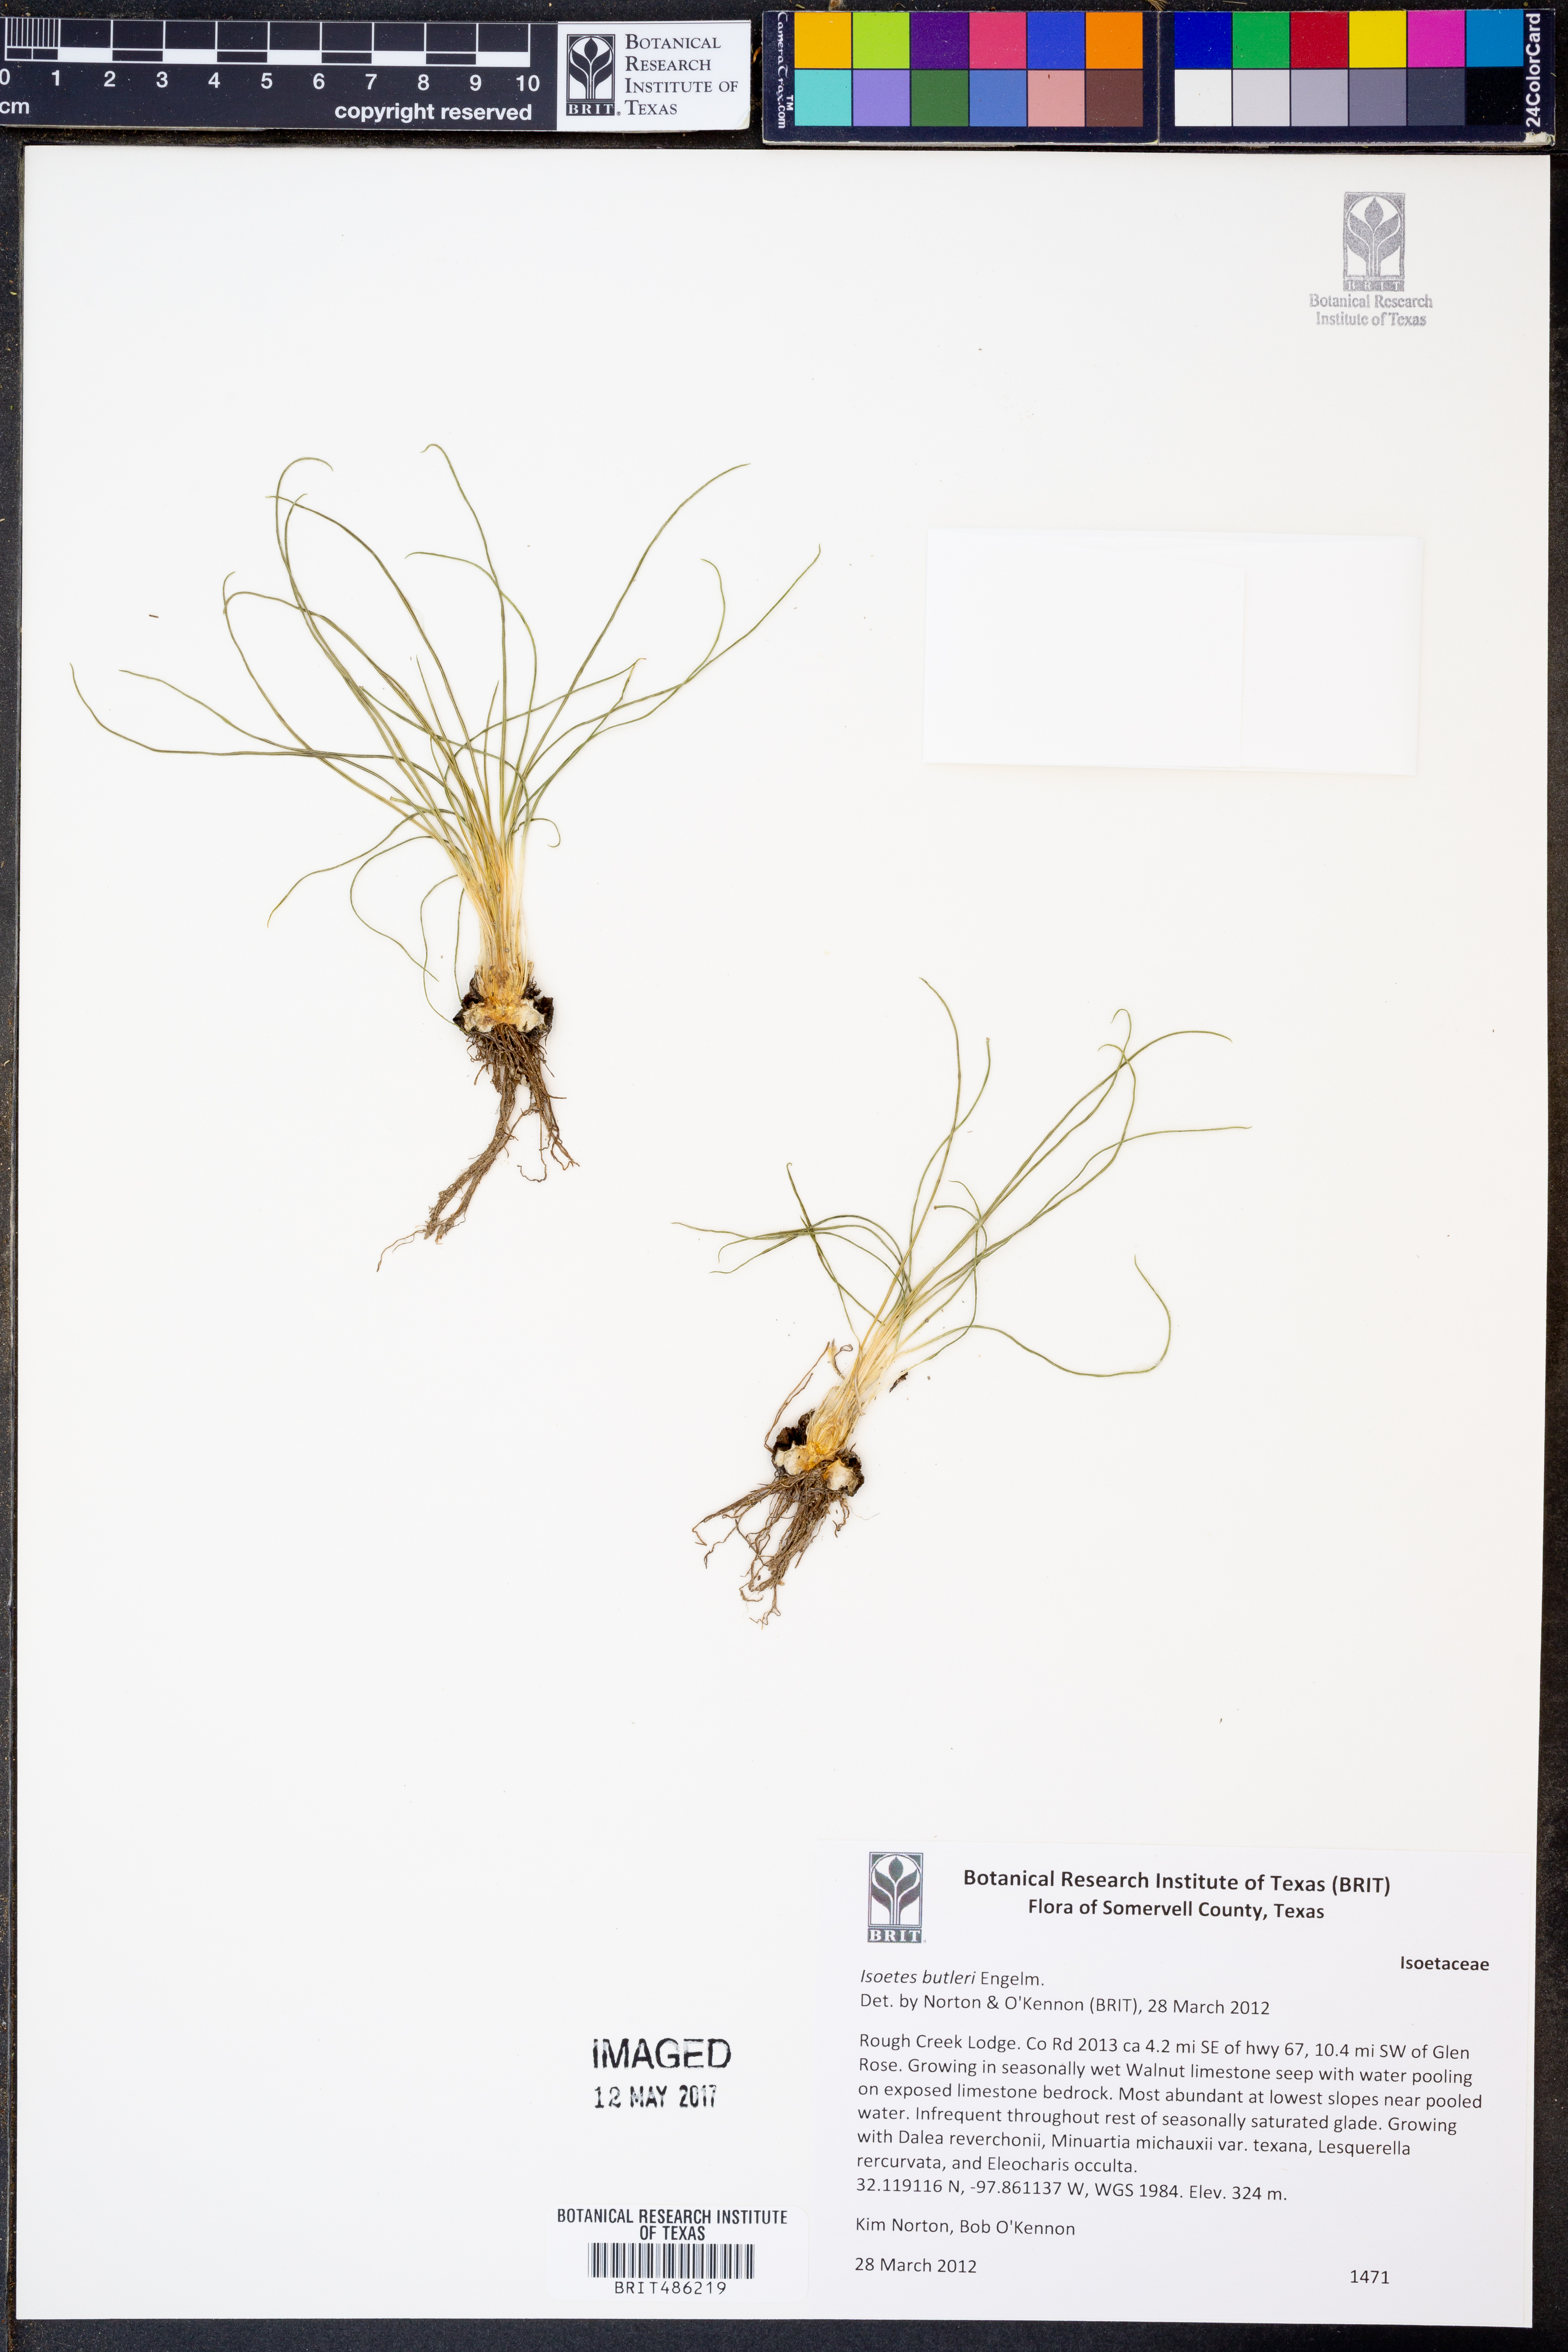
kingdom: Plantae
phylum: Tracheophyta
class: Lycopodiopsida
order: Isoetales
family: Isoetaceae
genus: Isoetes
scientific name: Isoetes butleri
